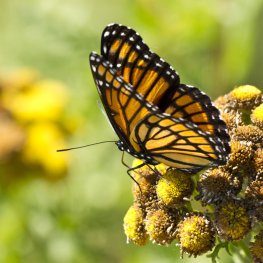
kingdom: Animalia
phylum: Arthropoda
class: Insecta
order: Lepidoptera
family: Nymphalidae
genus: Limenitis
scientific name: Limenitis archippus
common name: Viceroy
